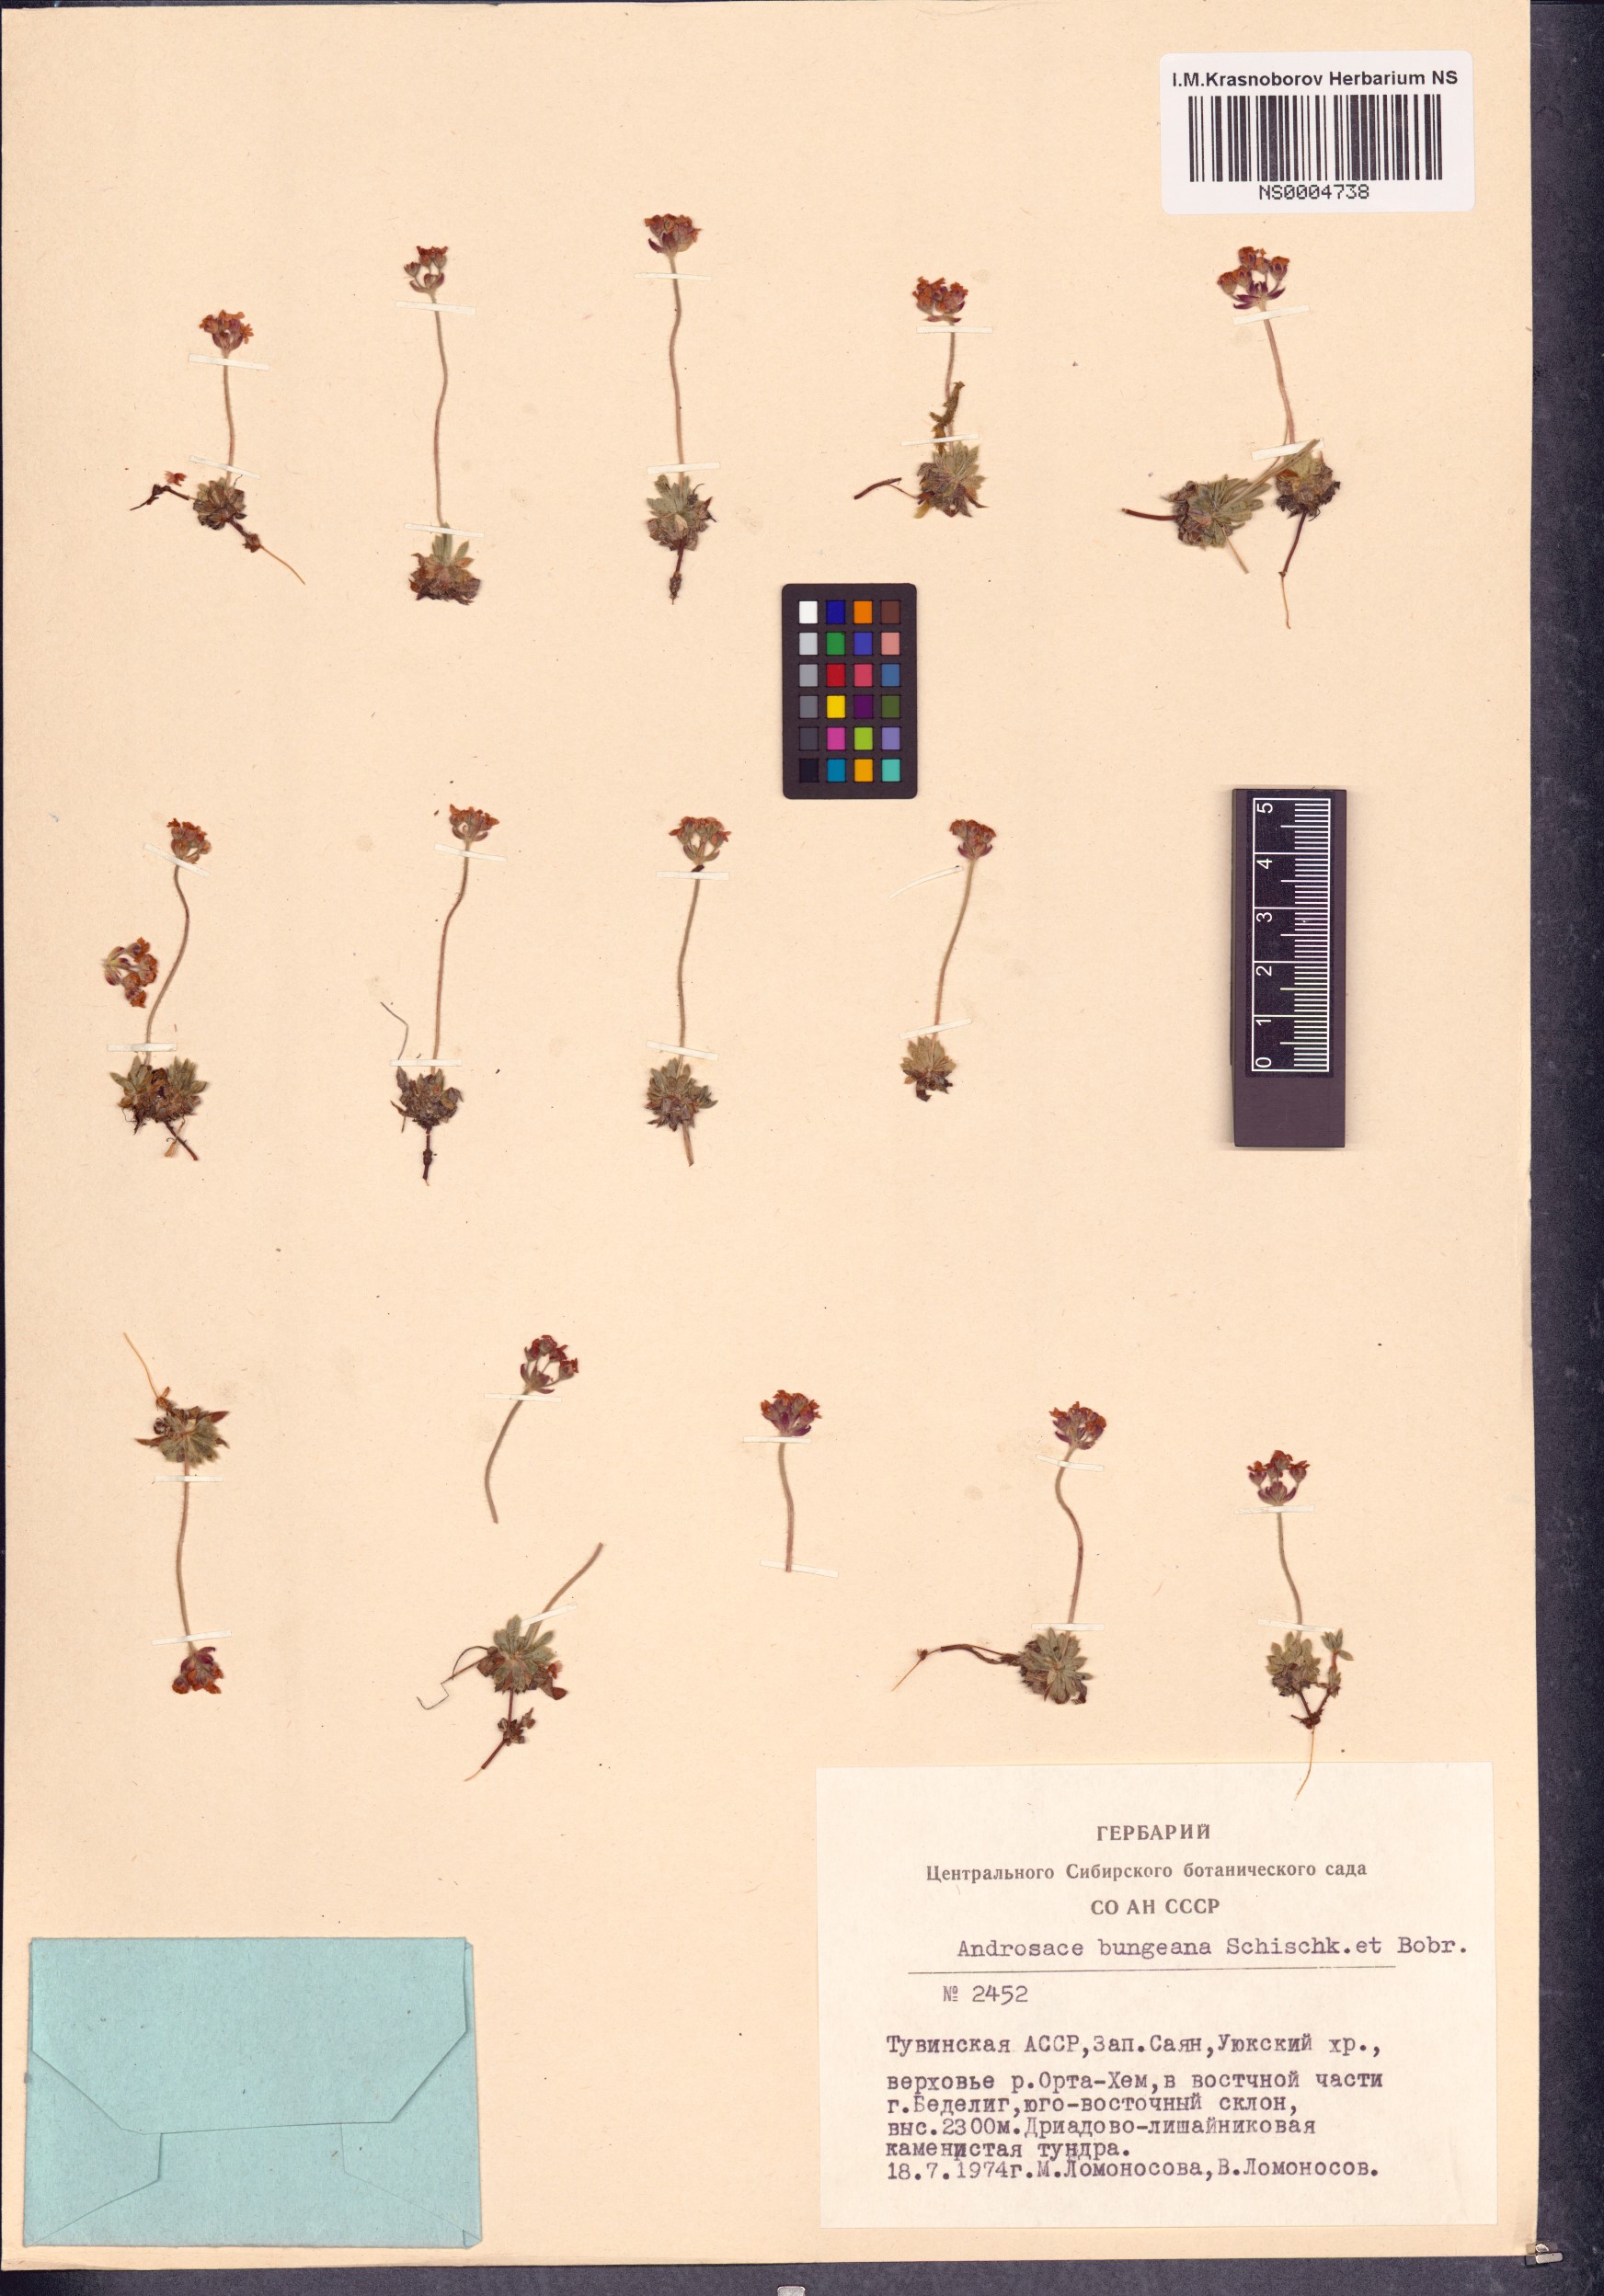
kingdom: Plantae
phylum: Tracheophyta
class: Magnoliopsida
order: Ericales
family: Primulaceae
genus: Androsace
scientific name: Androsace bungeana
